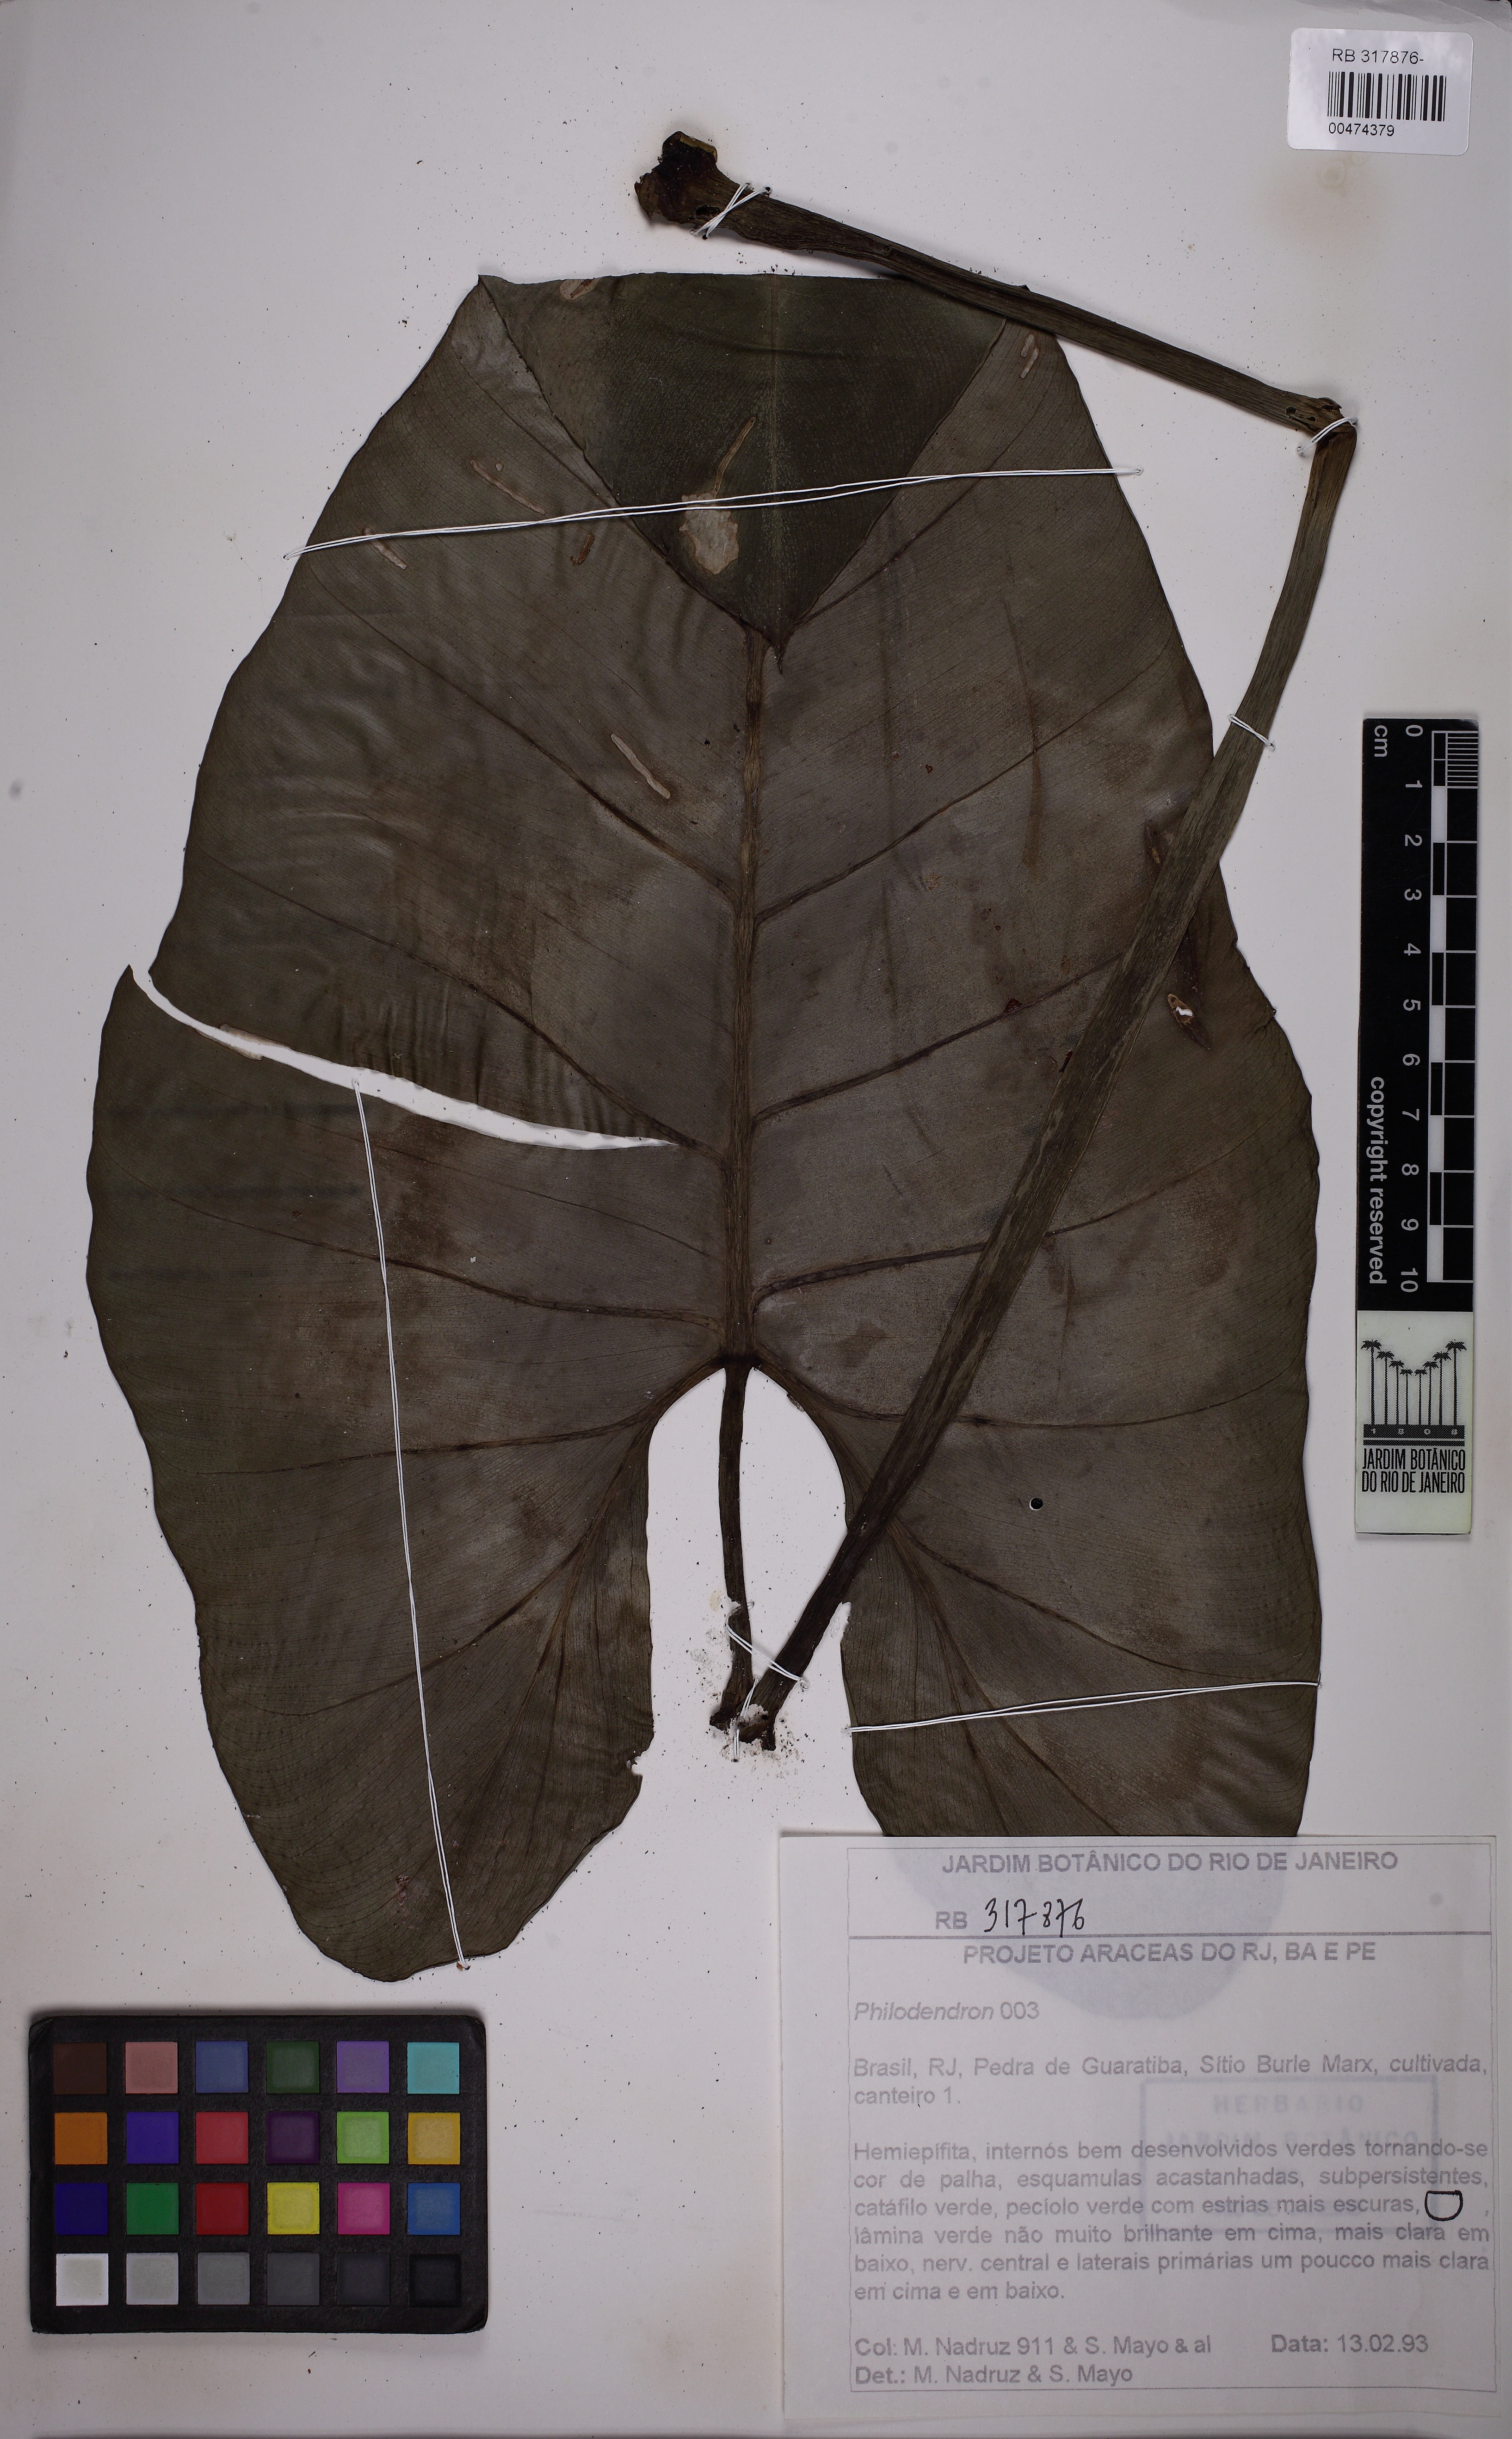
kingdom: Plantae
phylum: Tracheophyta
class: Liliopsida
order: Alismatales
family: Araceae
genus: Philodendron
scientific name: Philodendron
